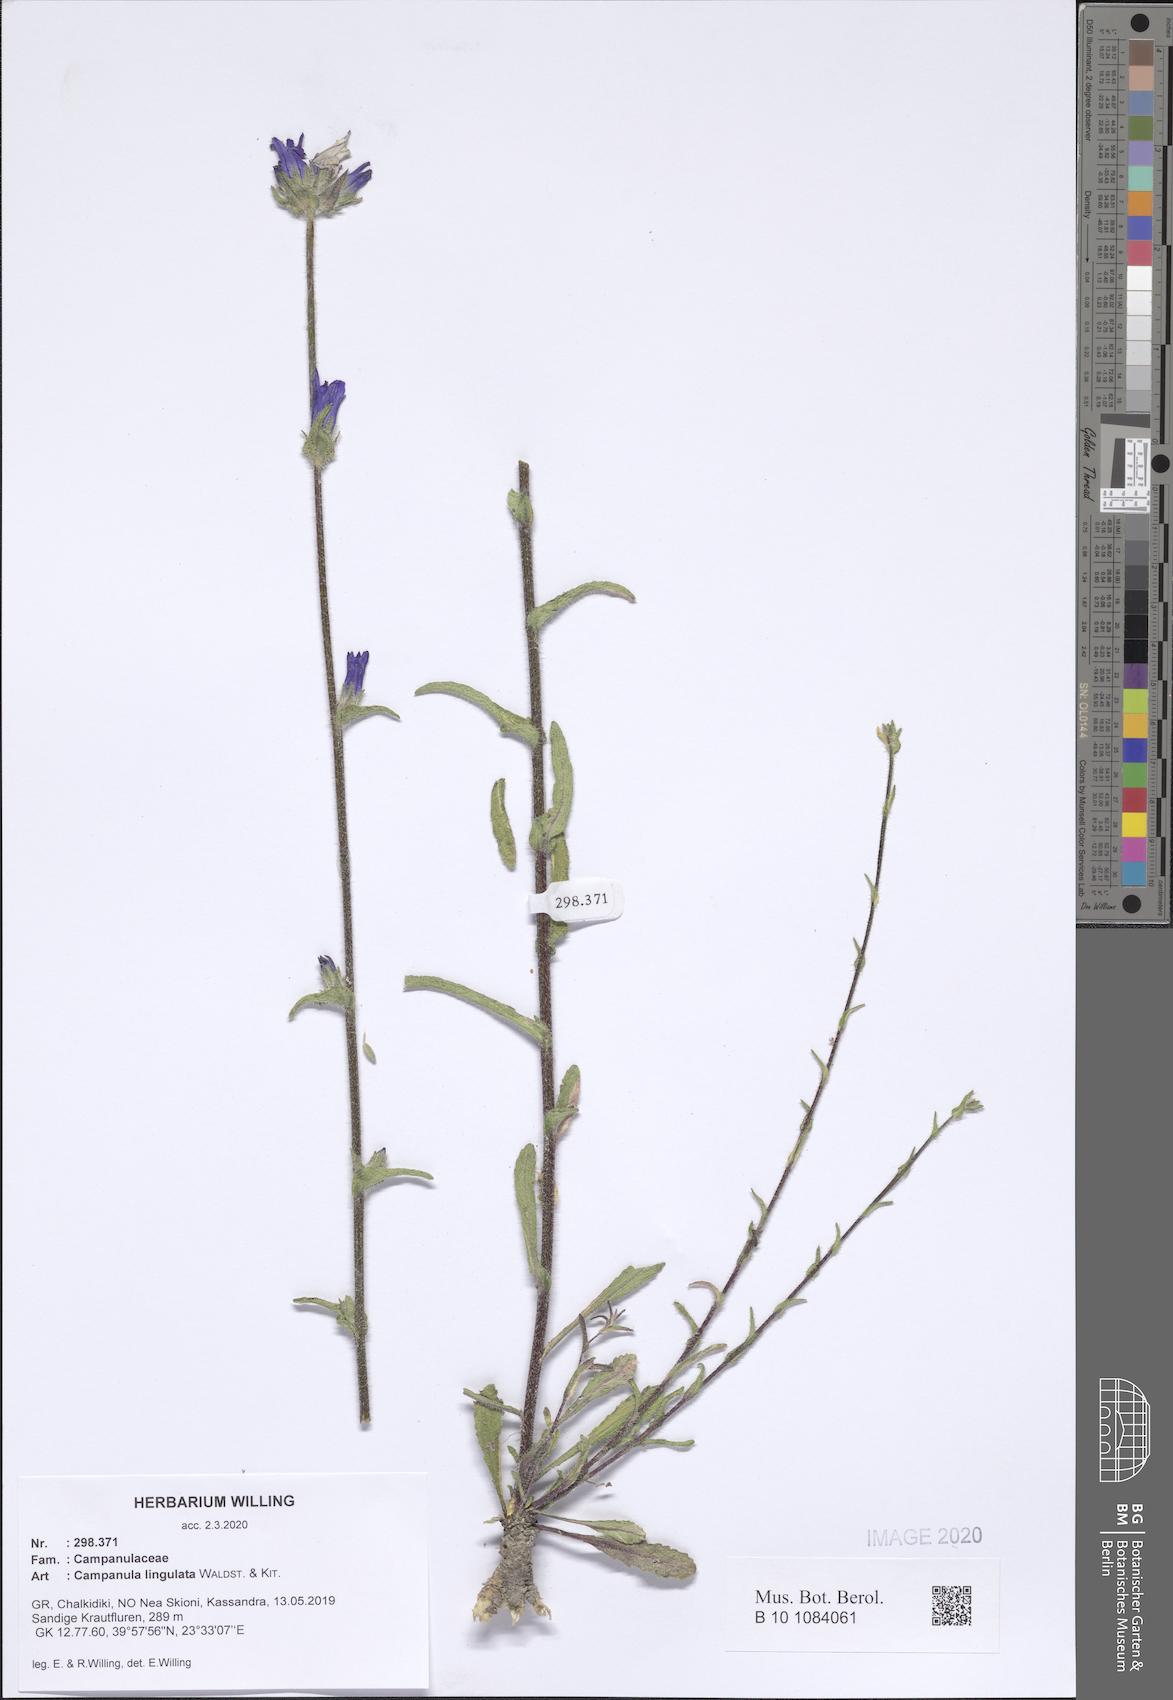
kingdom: Plantae
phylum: Tracheophyta
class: Magnoliopsida
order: Asterales
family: Campanulaceae
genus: Campanula
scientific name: Campanula lingulata
